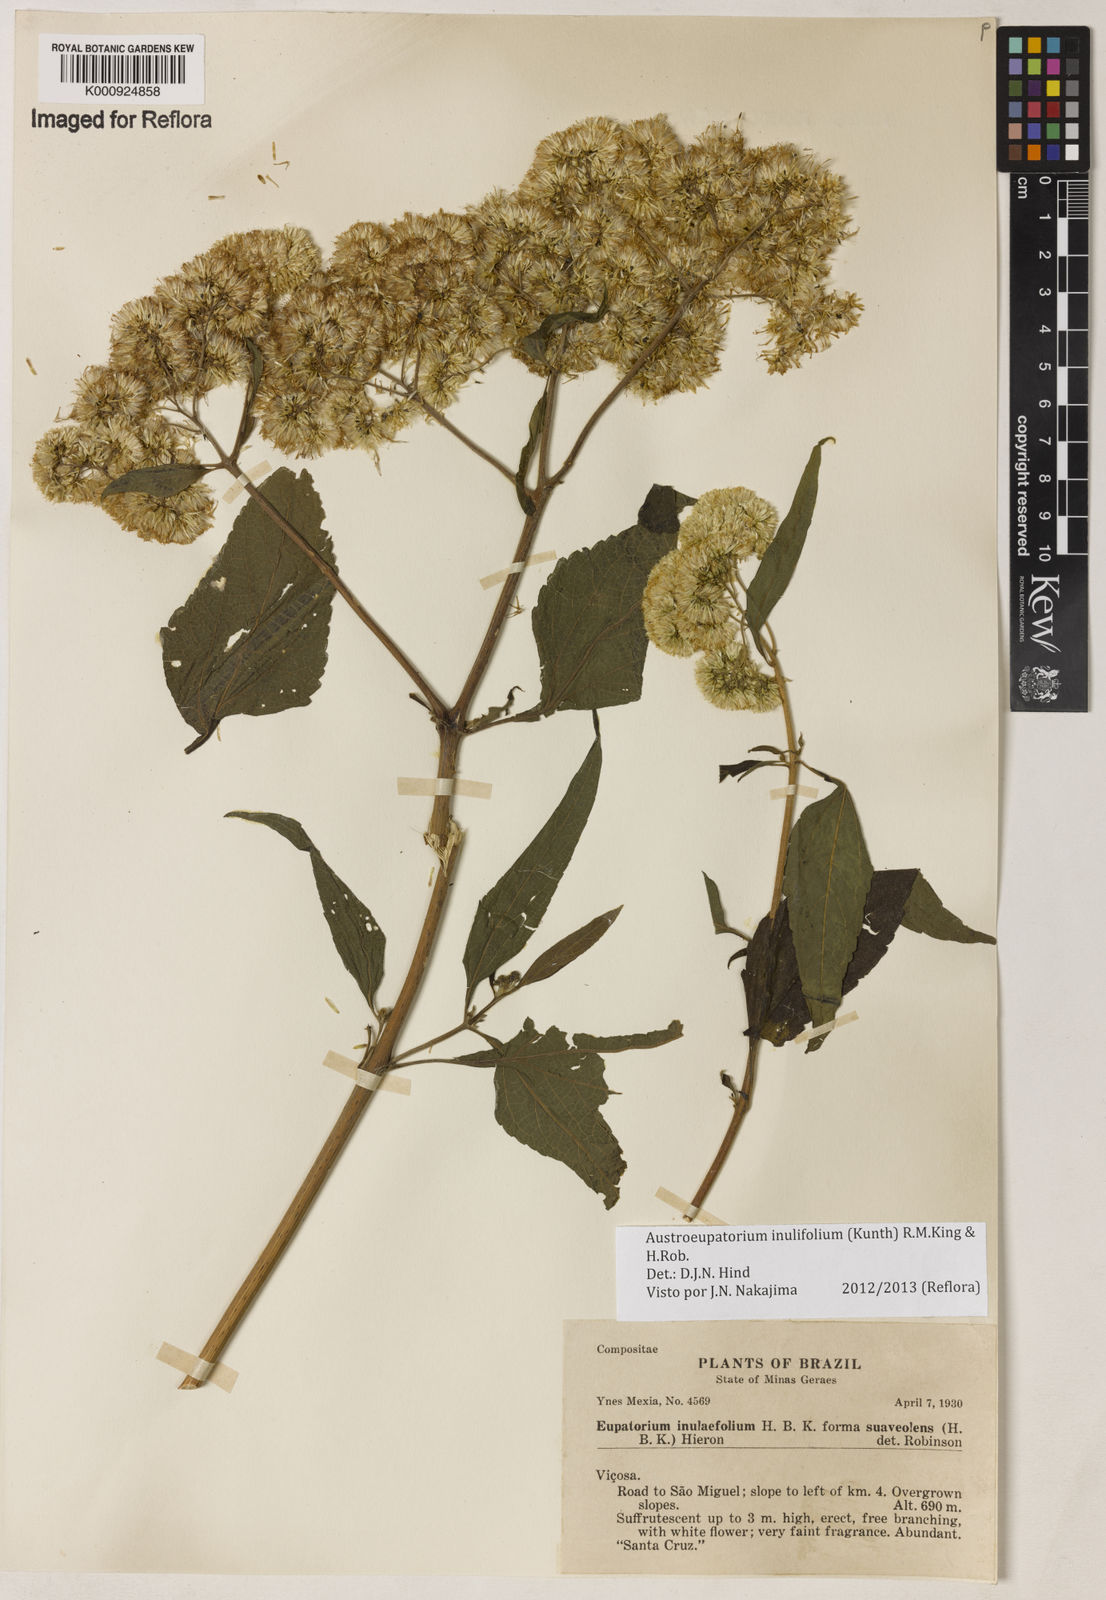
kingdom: Plantae
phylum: Tracheophyta
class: Magnoliopsida
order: Asterales
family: Asteraceae
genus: Austroeupatorium
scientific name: Austroeupatorium
